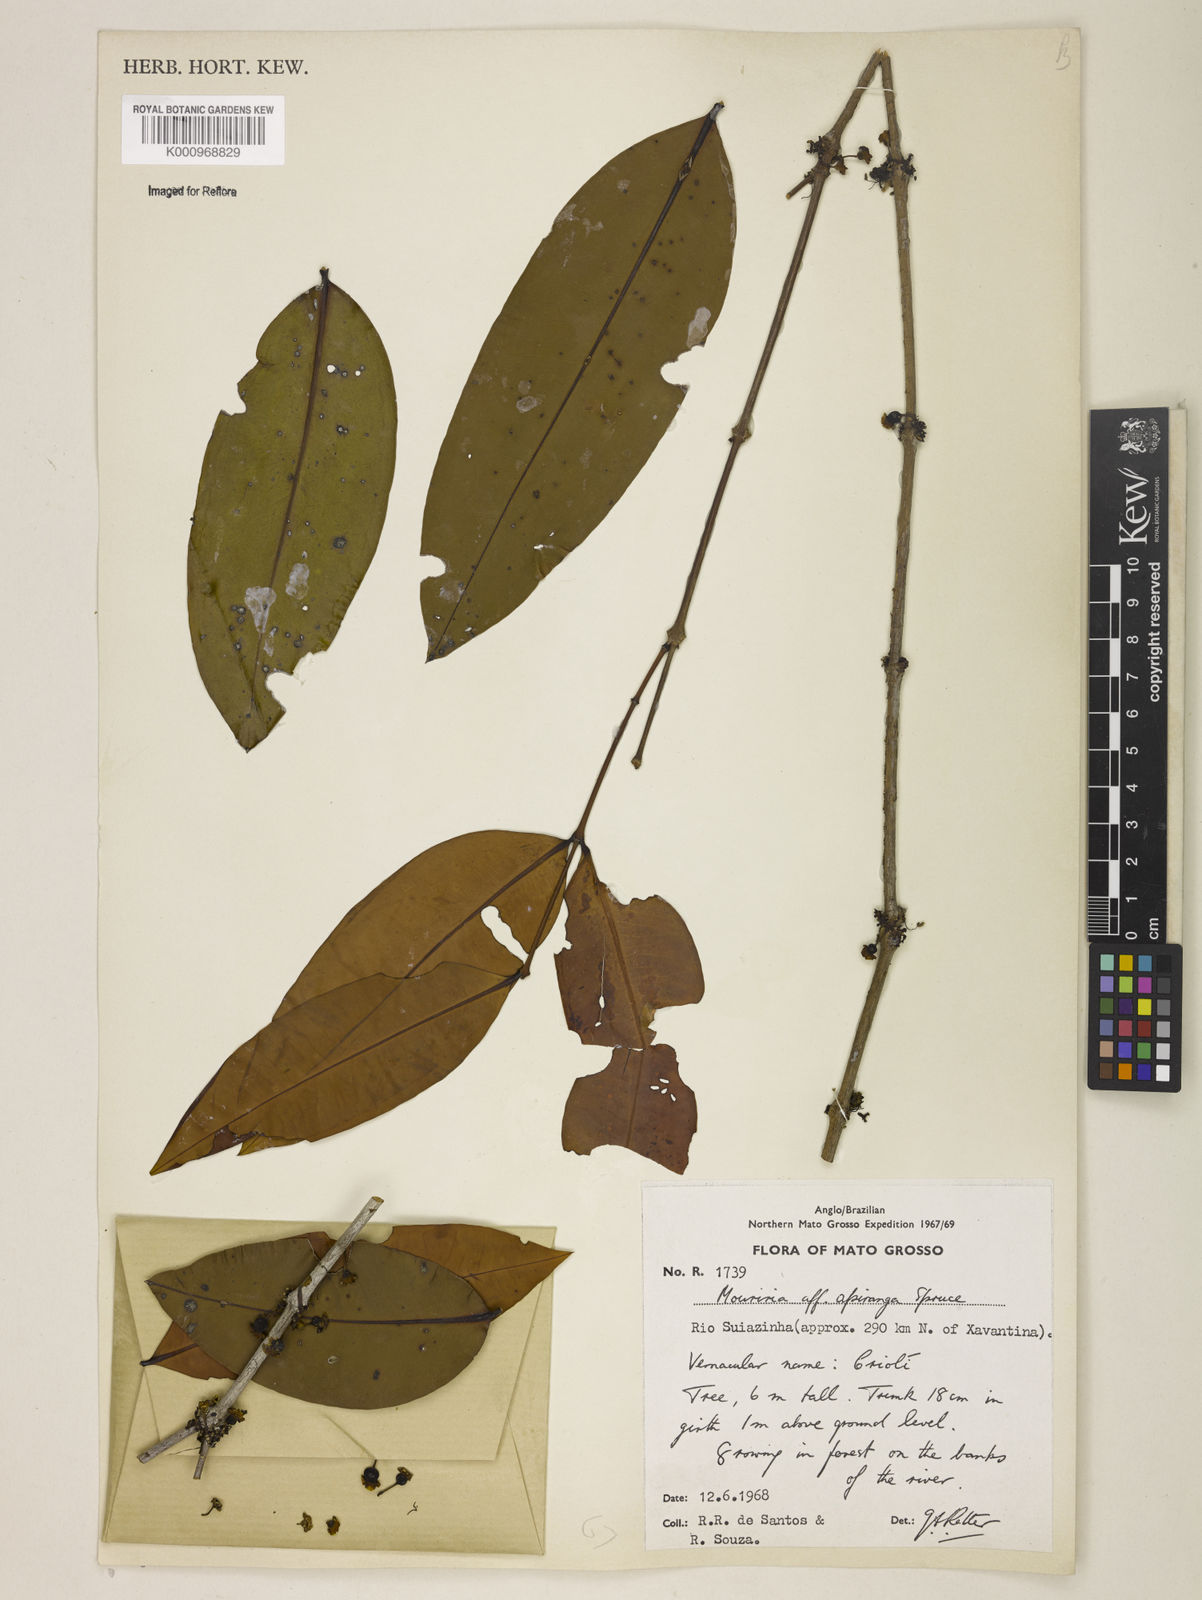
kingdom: Plantae
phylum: Tracheophyta
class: Magnoliopsida
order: Myrtales
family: Melastomataceae
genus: Mouriri
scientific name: Mouriri apiranga
